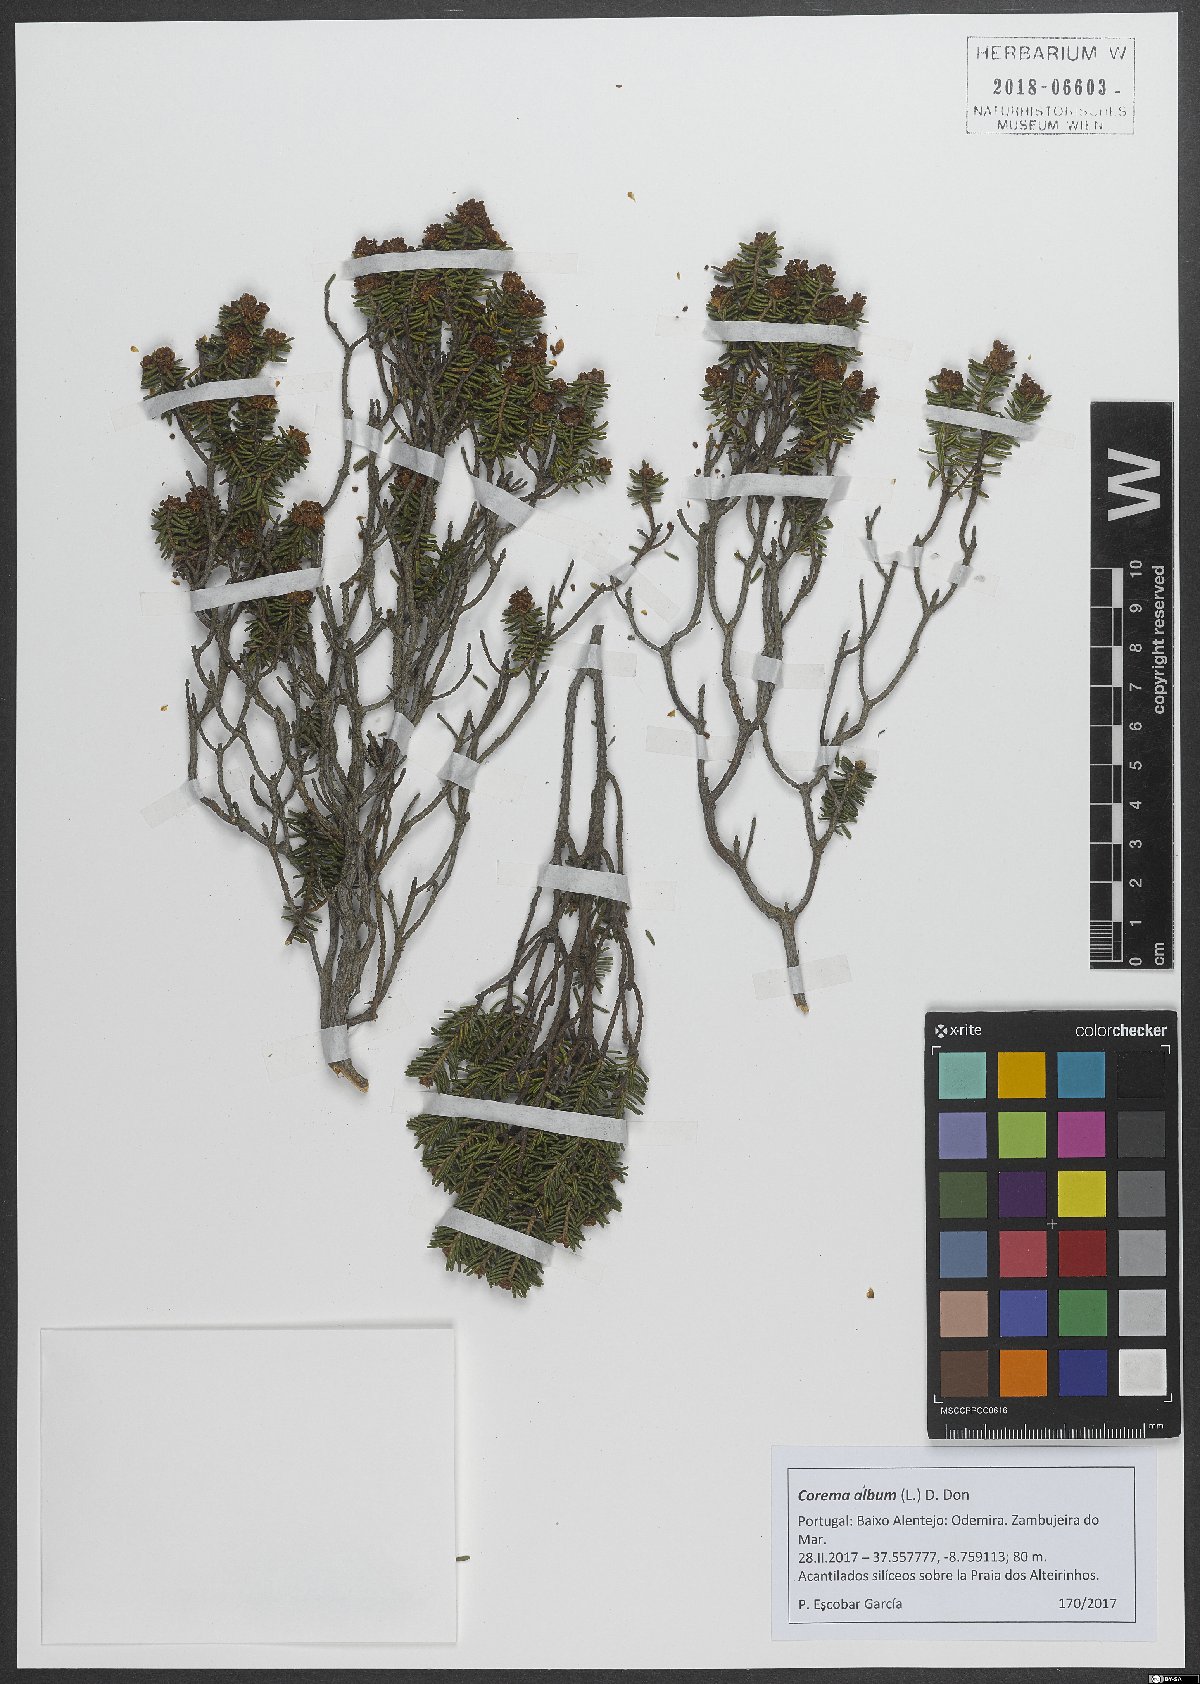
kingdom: Plantae
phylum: Tracheophyta
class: Magnoliopsida
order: Ericales
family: Ericaceae
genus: Corema
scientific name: Corema album
